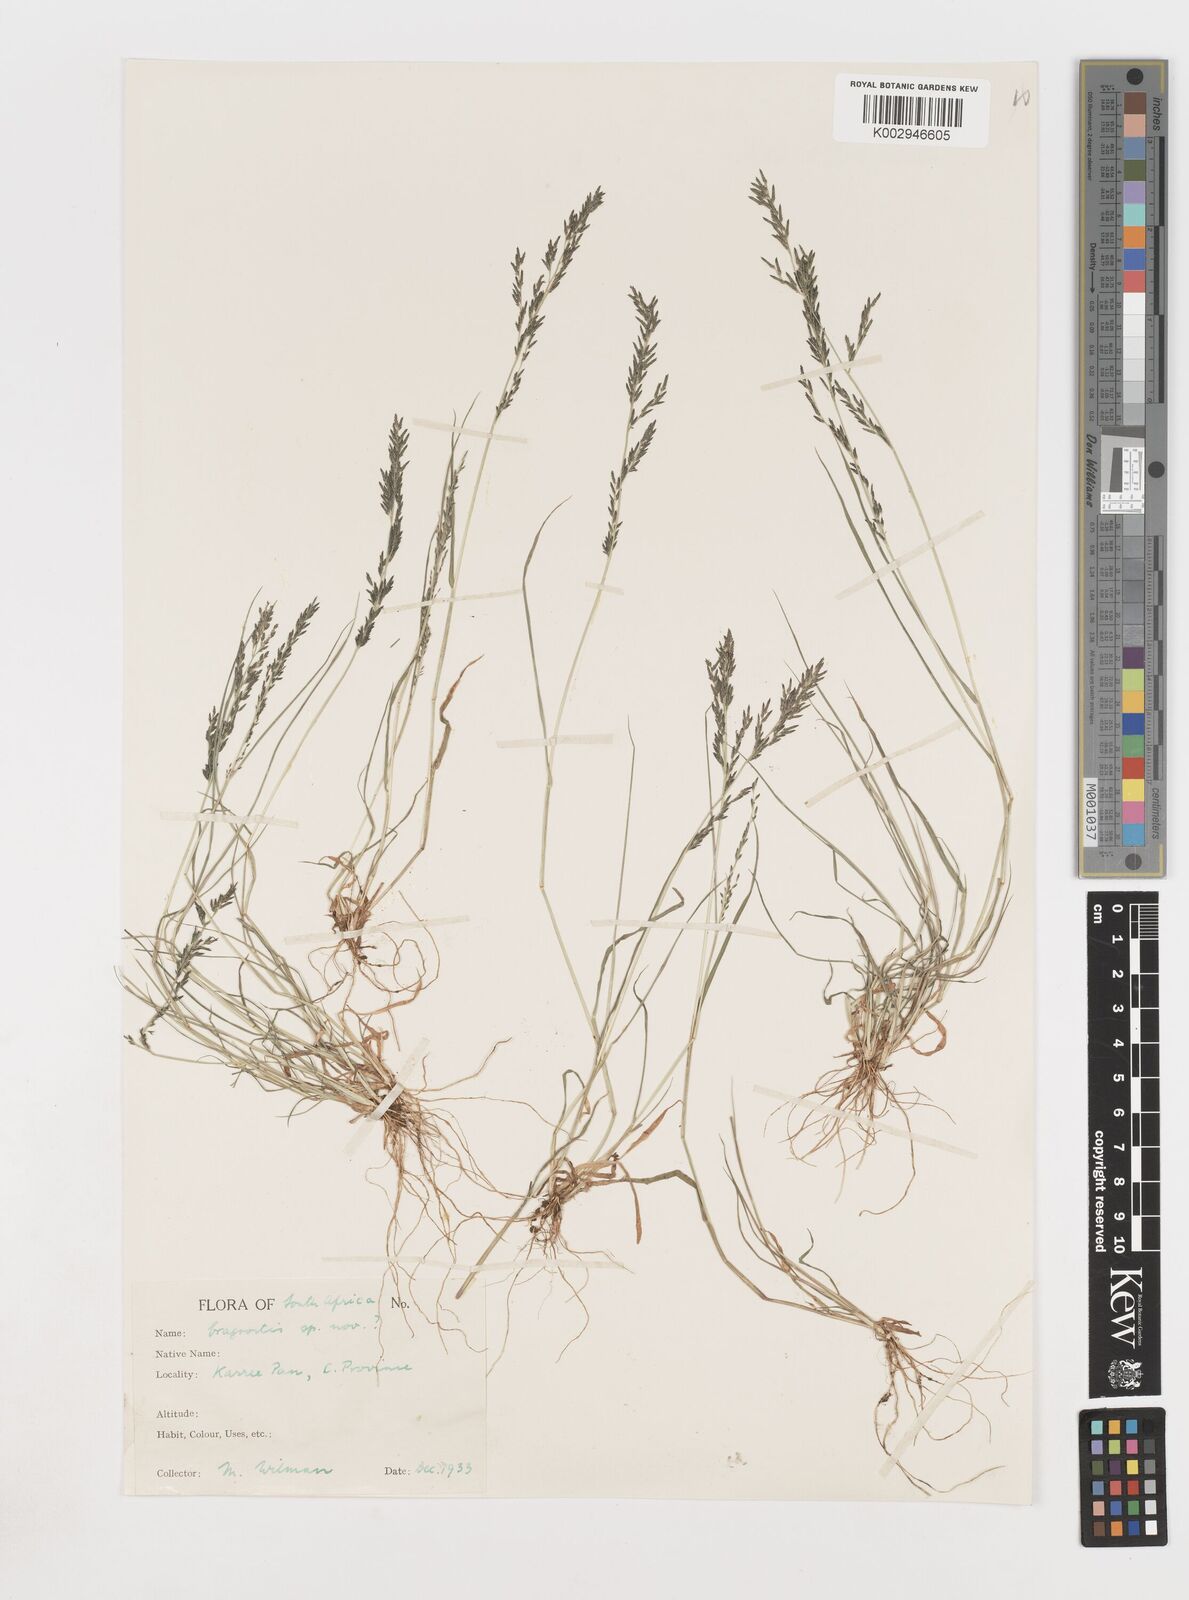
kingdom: Plantae
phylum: Tracheophyta
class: Liliopsida
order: Poales
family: Poaceae
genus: Eragrostis
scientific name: Eragrostis homomalla
